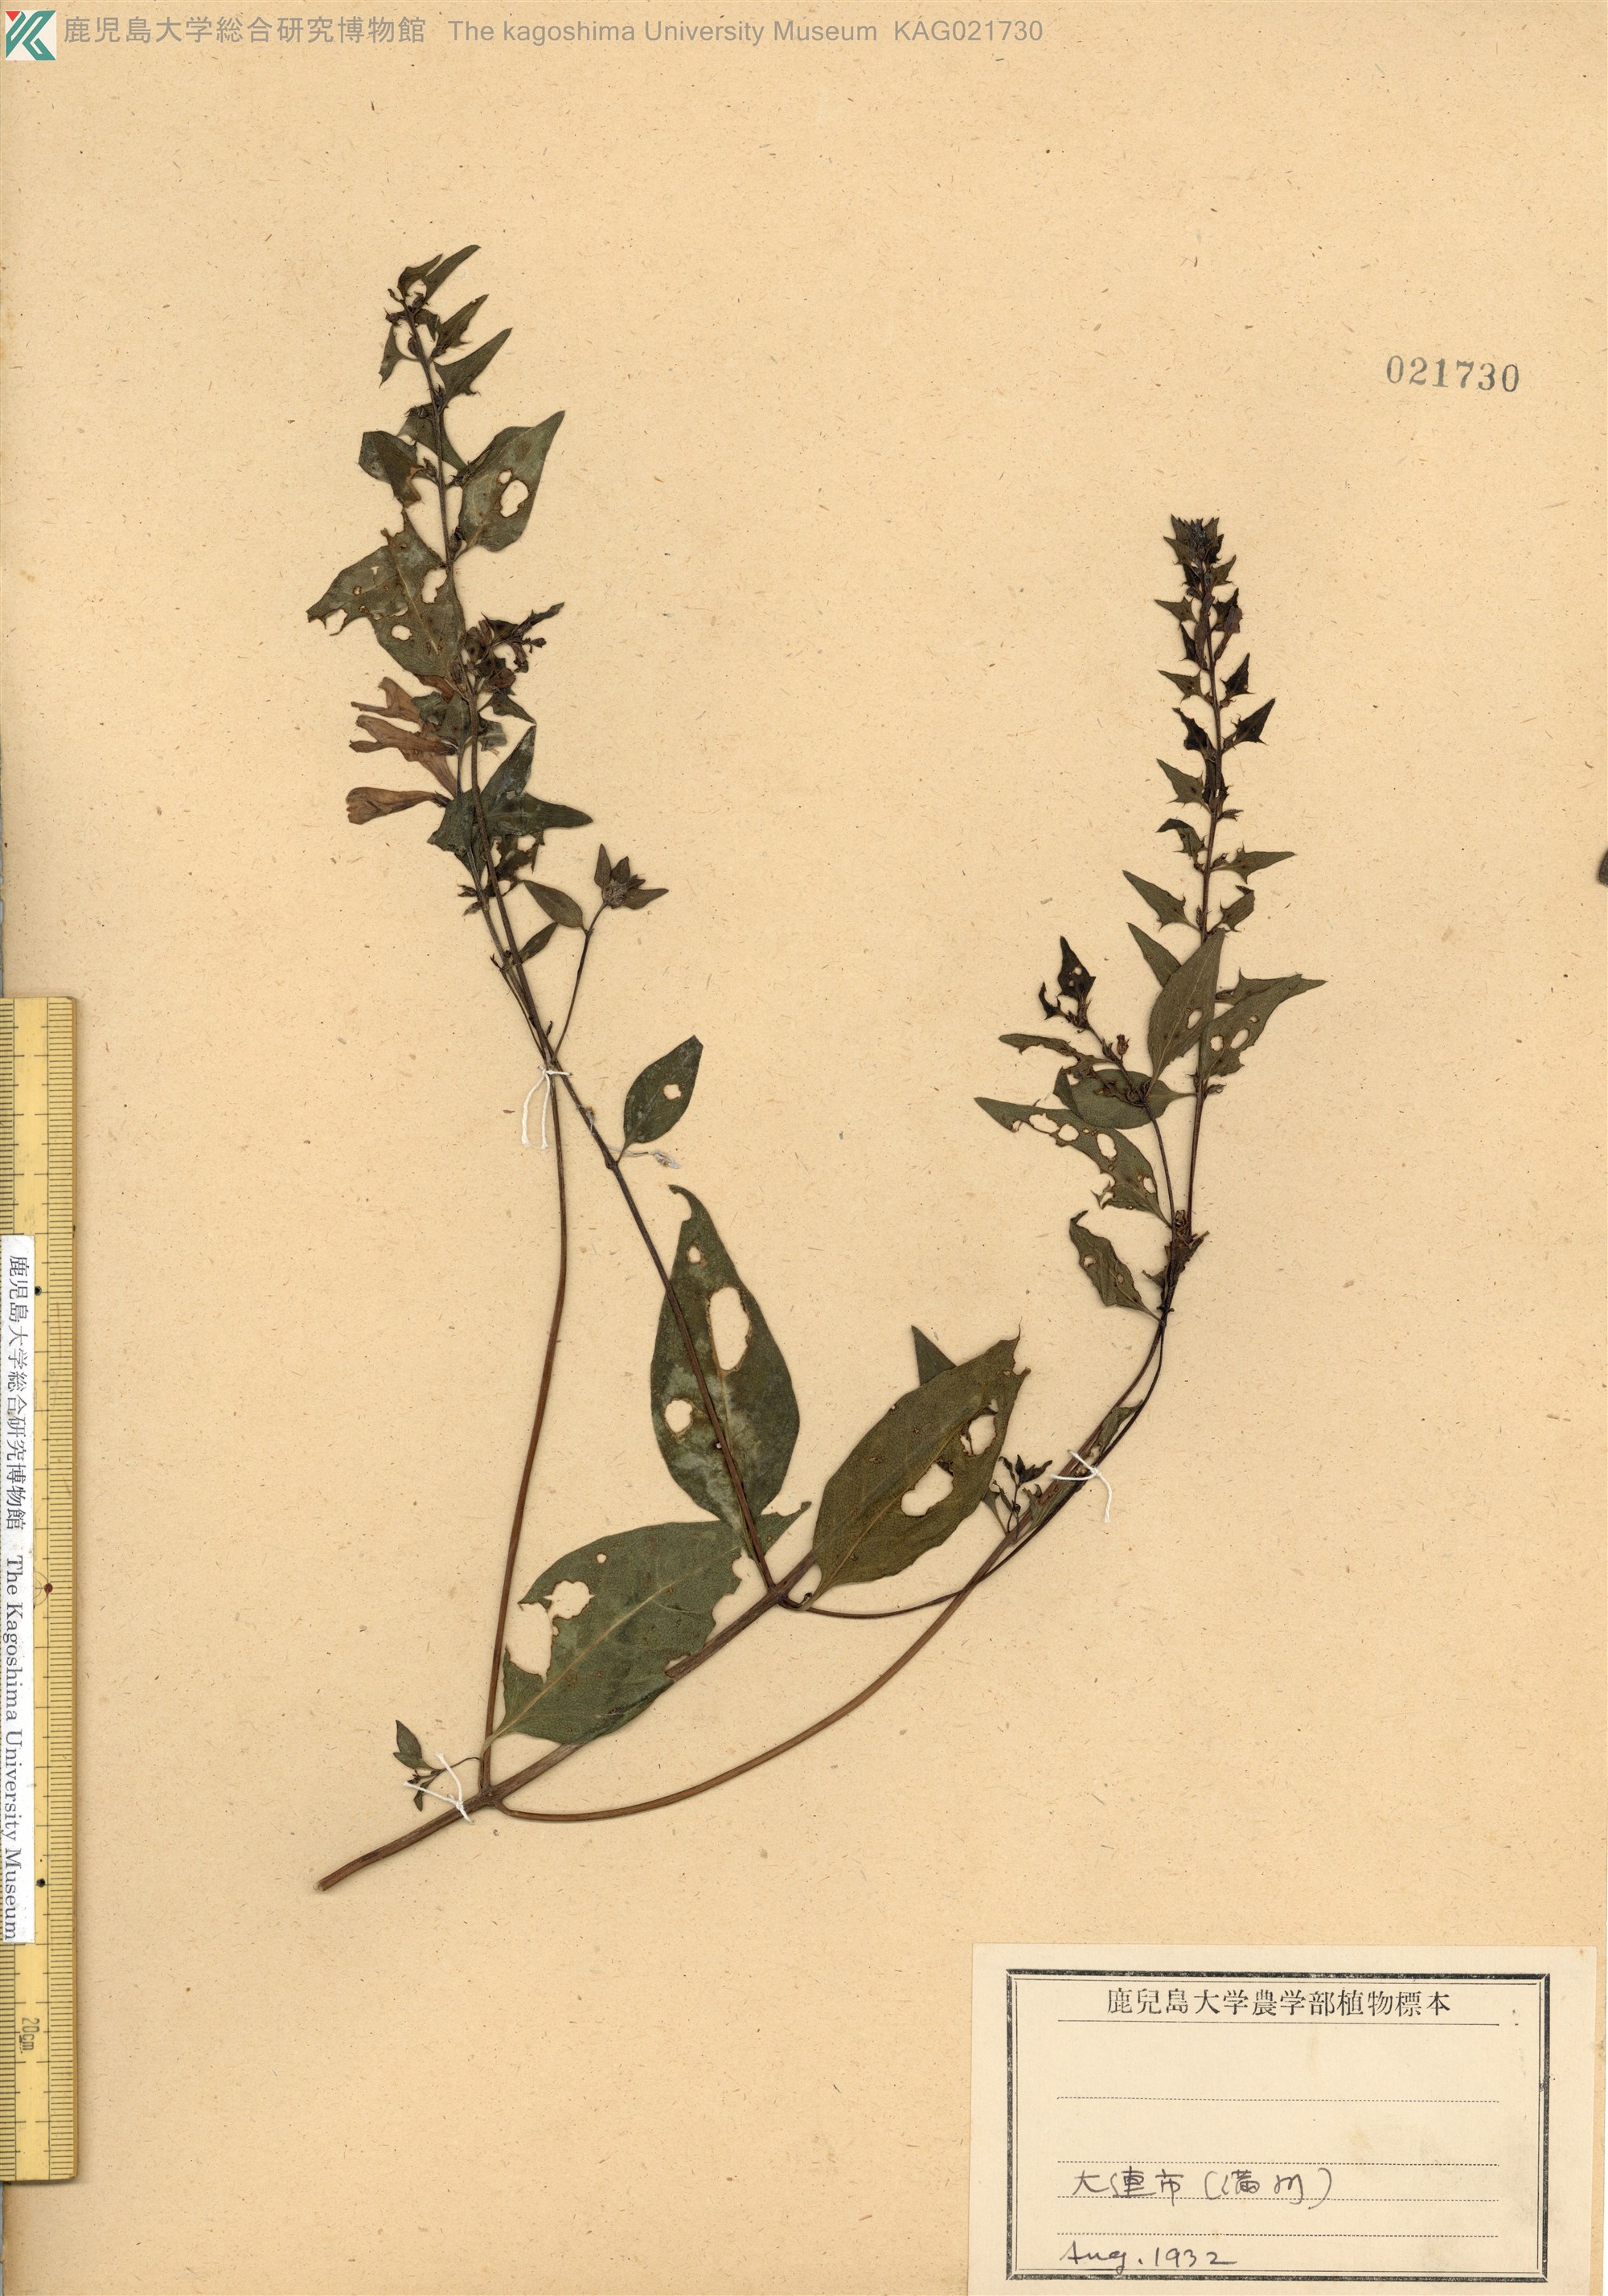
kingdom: Plantae
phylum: Tracheophyta
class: Magnoliopsida
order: Lamiales
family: Orobanchaceae
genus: Melampyrum
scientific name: Melampyrum roseum
